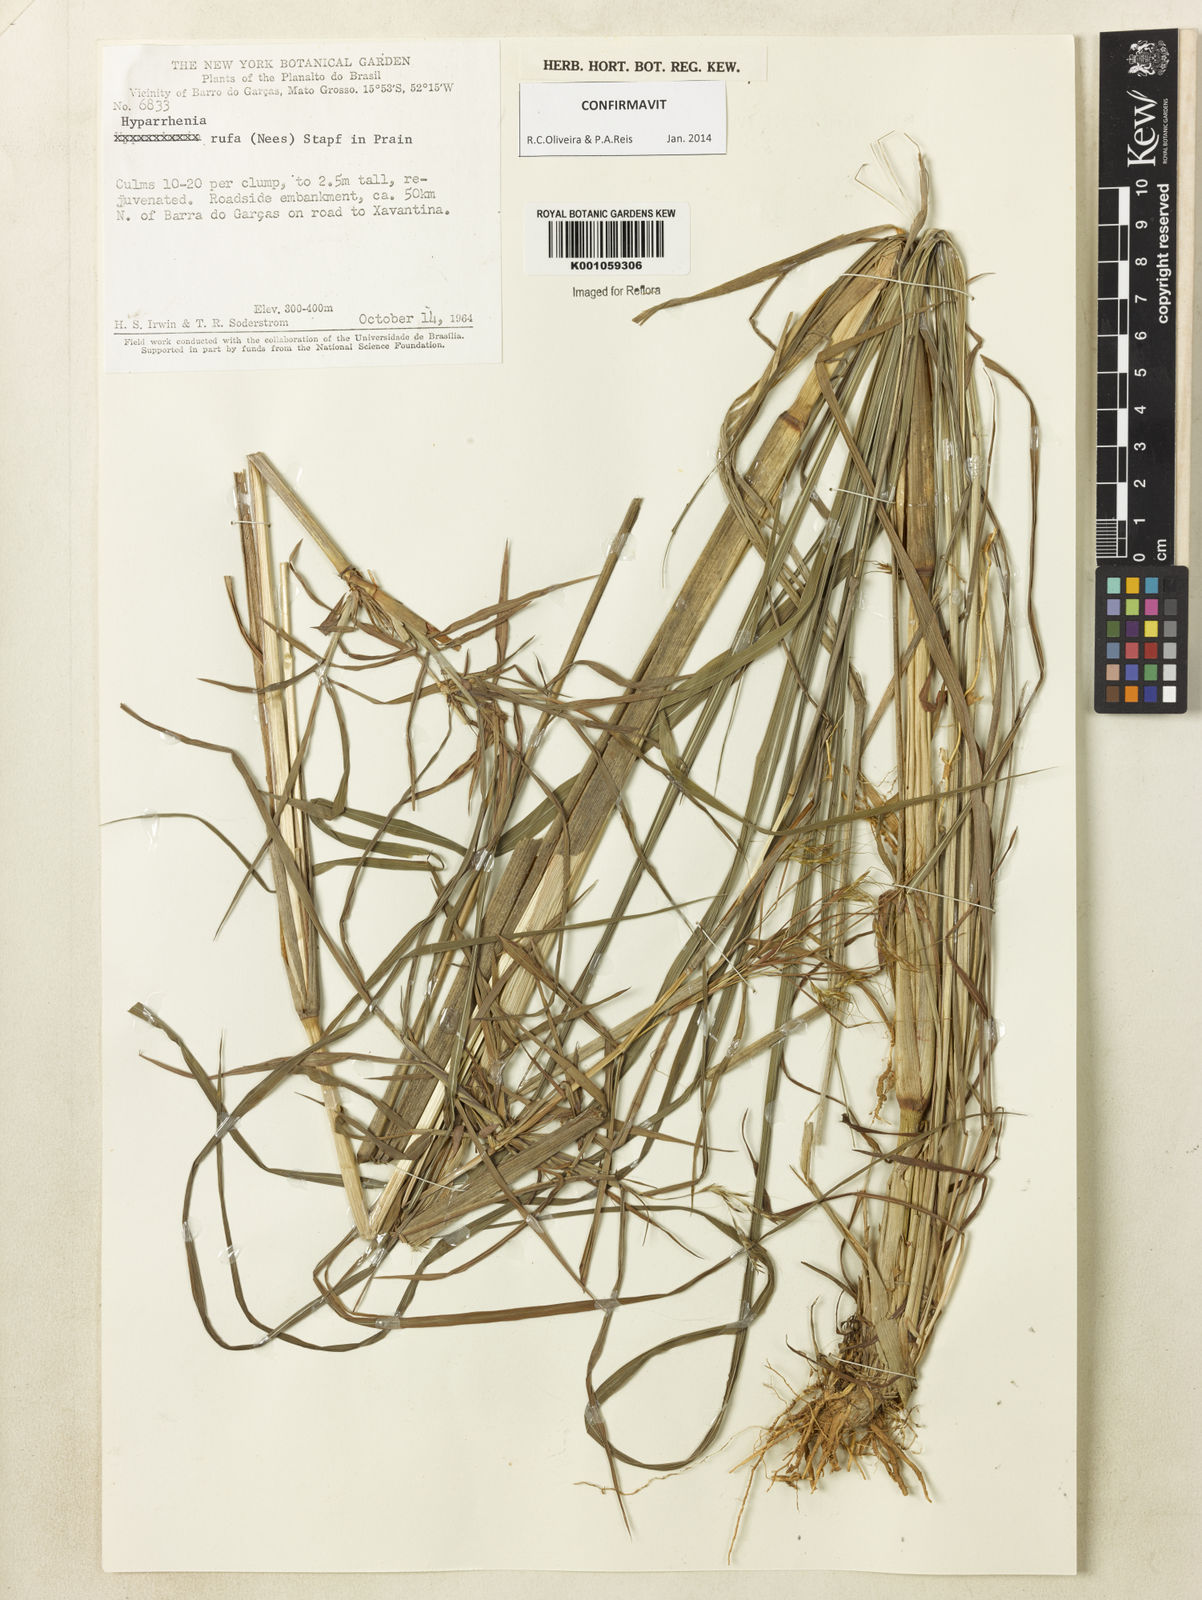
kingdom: Plantae
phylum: Tracheophyta
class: Liliopsida
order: Poales
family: Poaceae
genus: Hyparrhenia
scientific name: Hyparrhenia rufa
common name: Jaraguagrass
